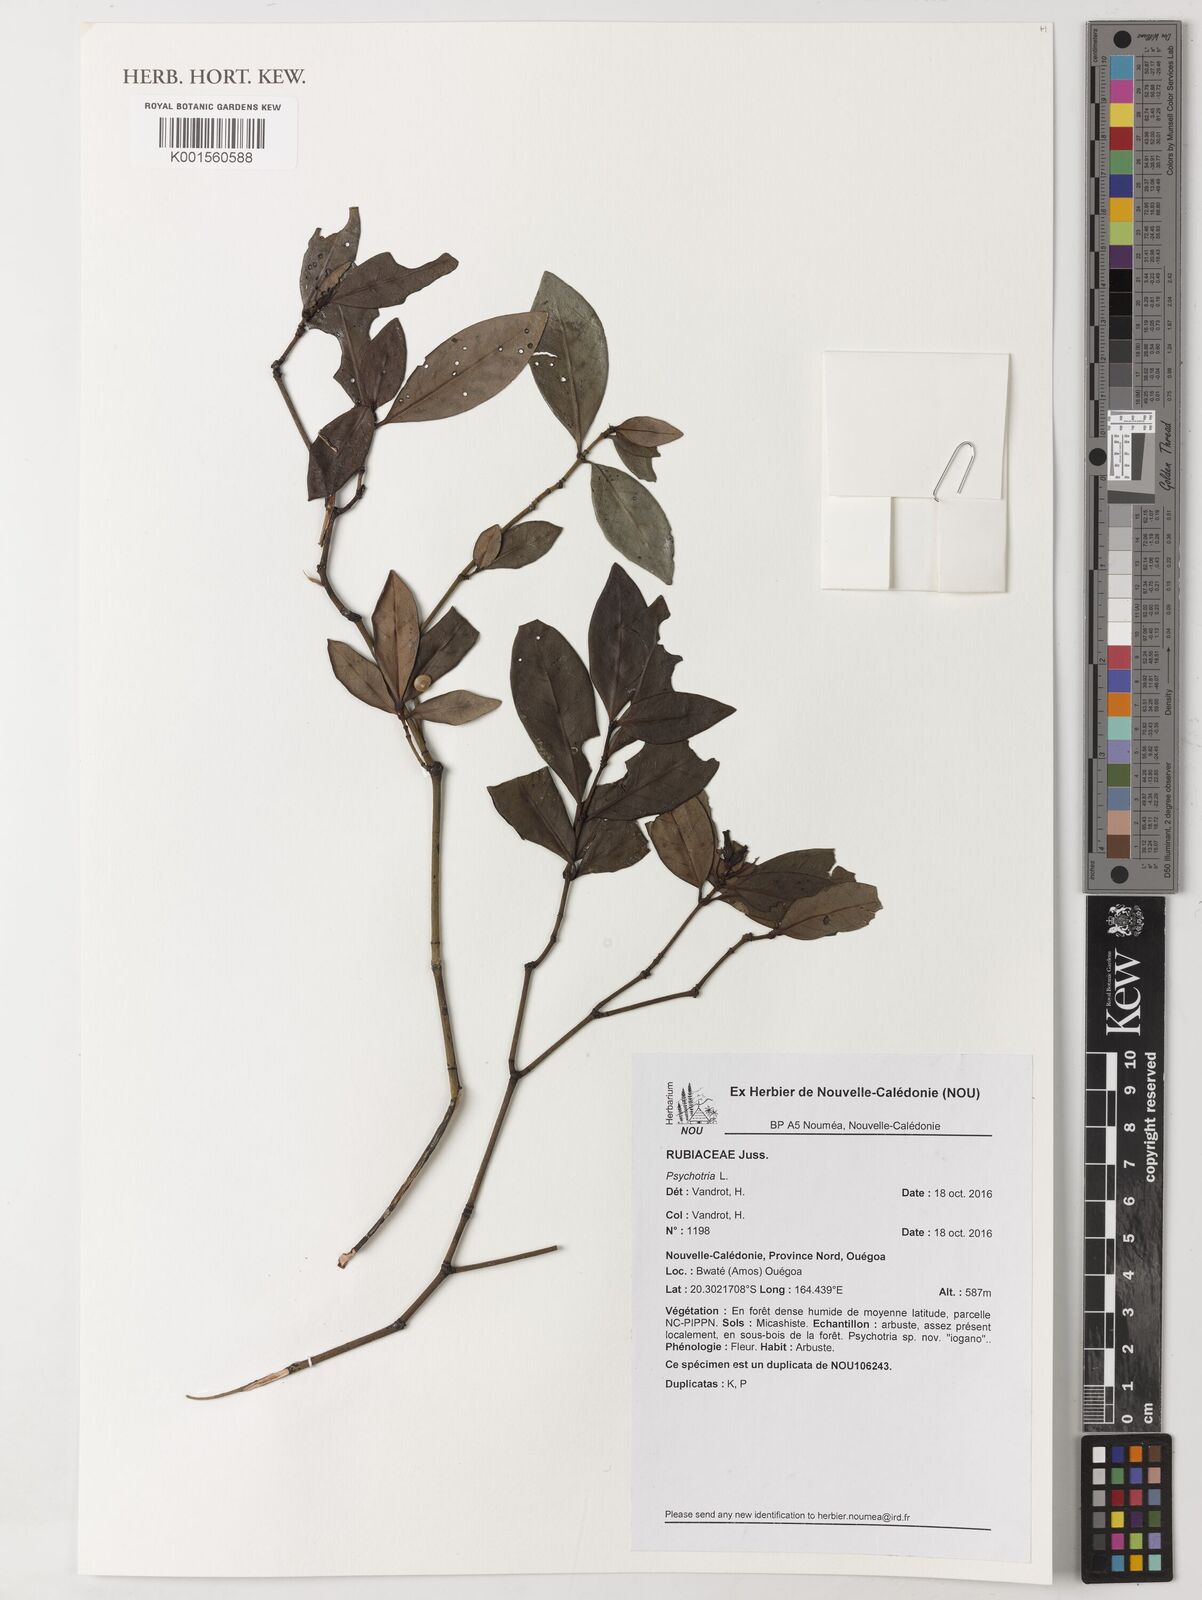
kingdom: Plantae
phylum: Tracheophyta
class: Magnoliopsida
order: Gentianales
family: Rubiaceae
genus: Psychotria
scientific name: Psychotria
